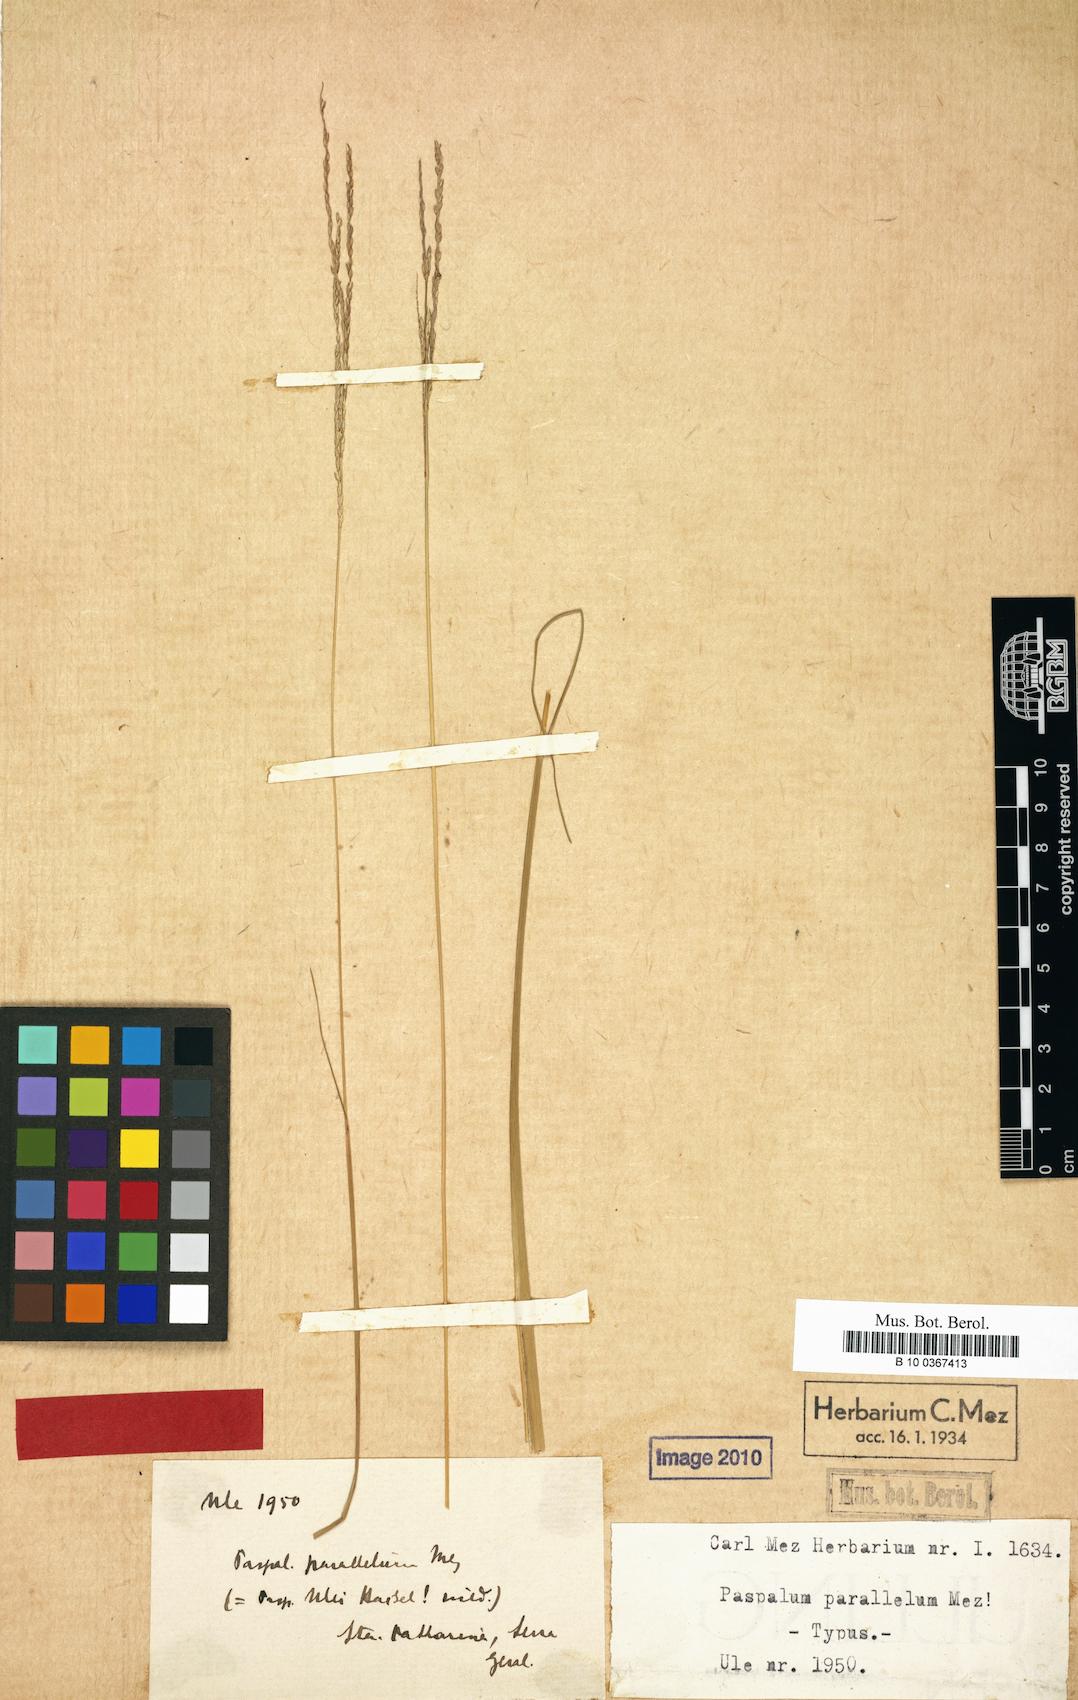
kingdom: Plantae
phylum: Tracheophyta
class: Liliopsida
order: Poales
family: Poaceae
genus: Axonopus
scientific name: Axonopus siccus
